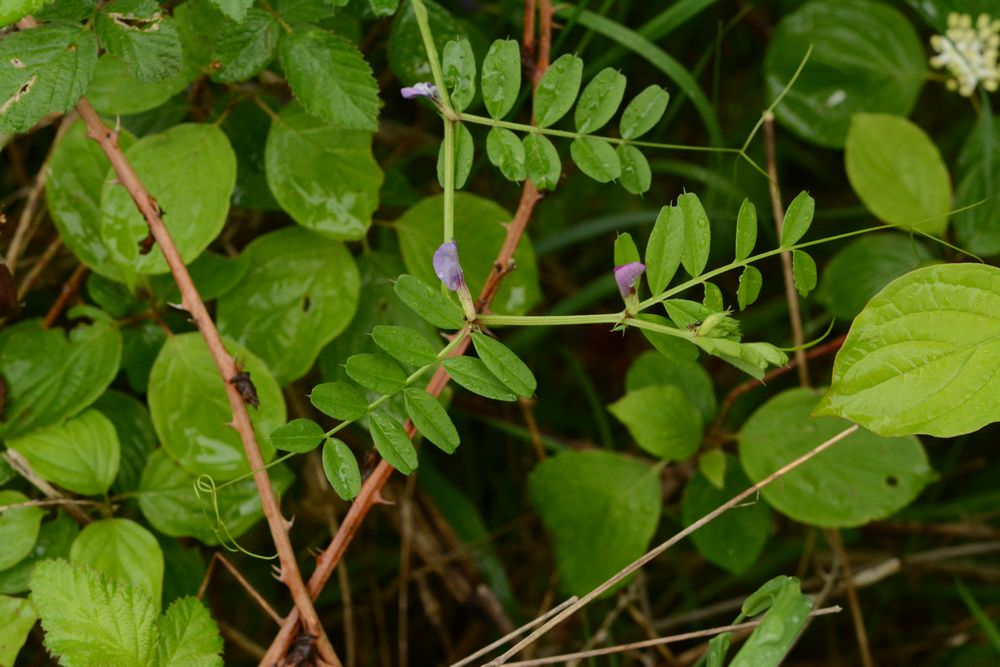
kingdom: Plantae
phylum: Tracheophyta
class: Magnoliopsida
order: Fabales
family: Fabaceae
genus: Vicia
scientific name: Vicia sativa
